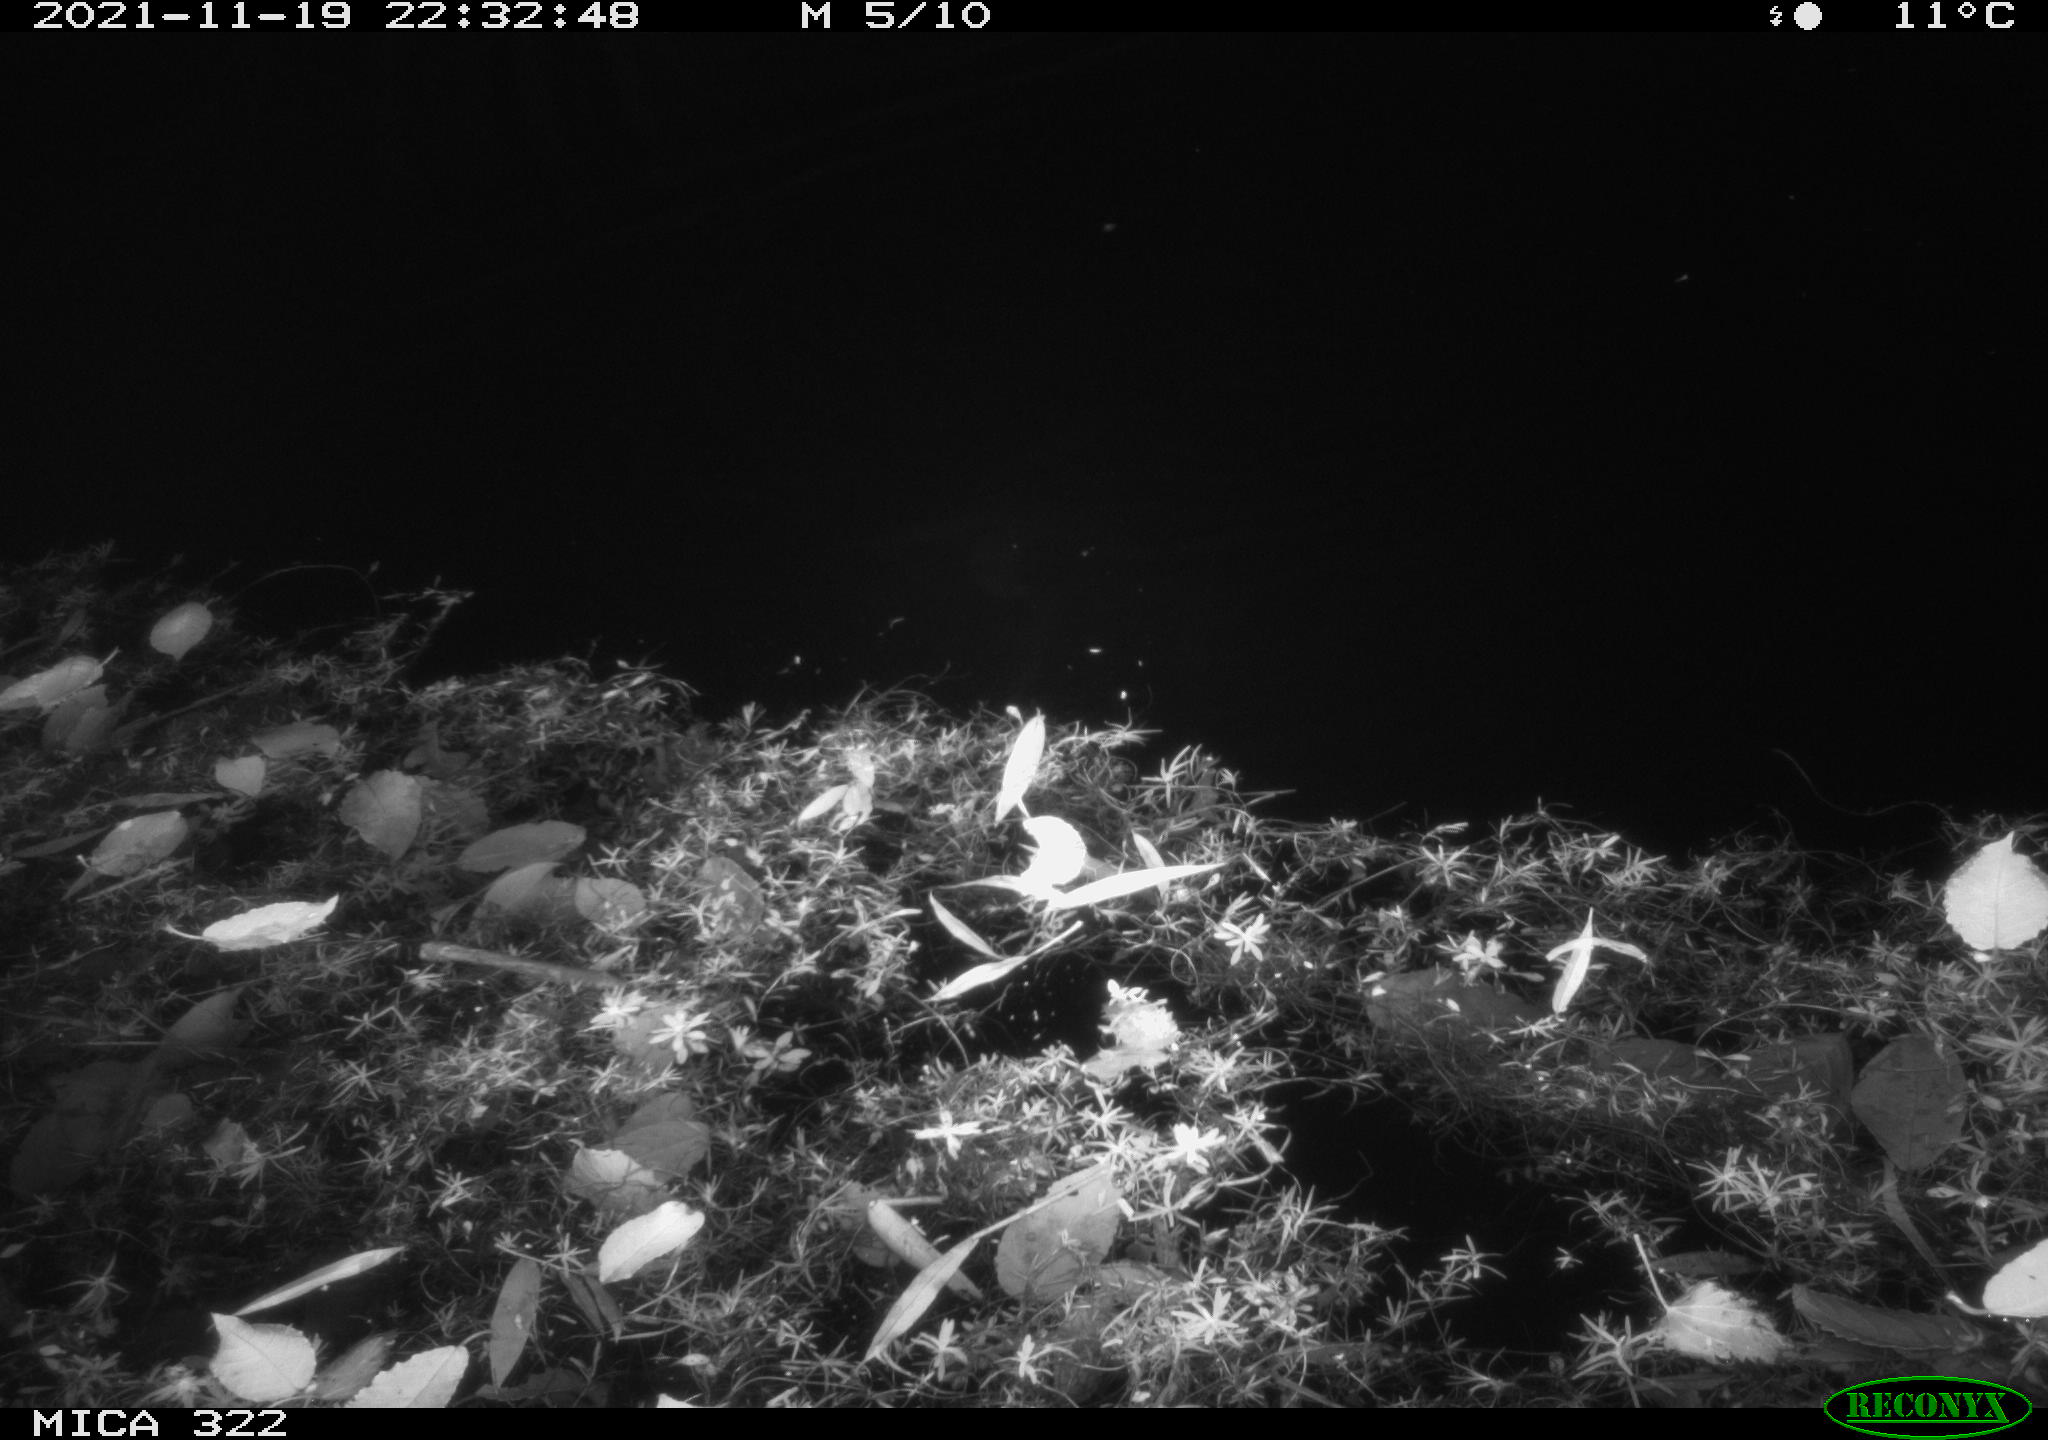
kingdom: Animalia
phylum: Chordata
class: Mammalia
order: Carnivora
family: Mustelidae
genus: Mustela
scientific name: Mustela erminea
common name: Stoat
